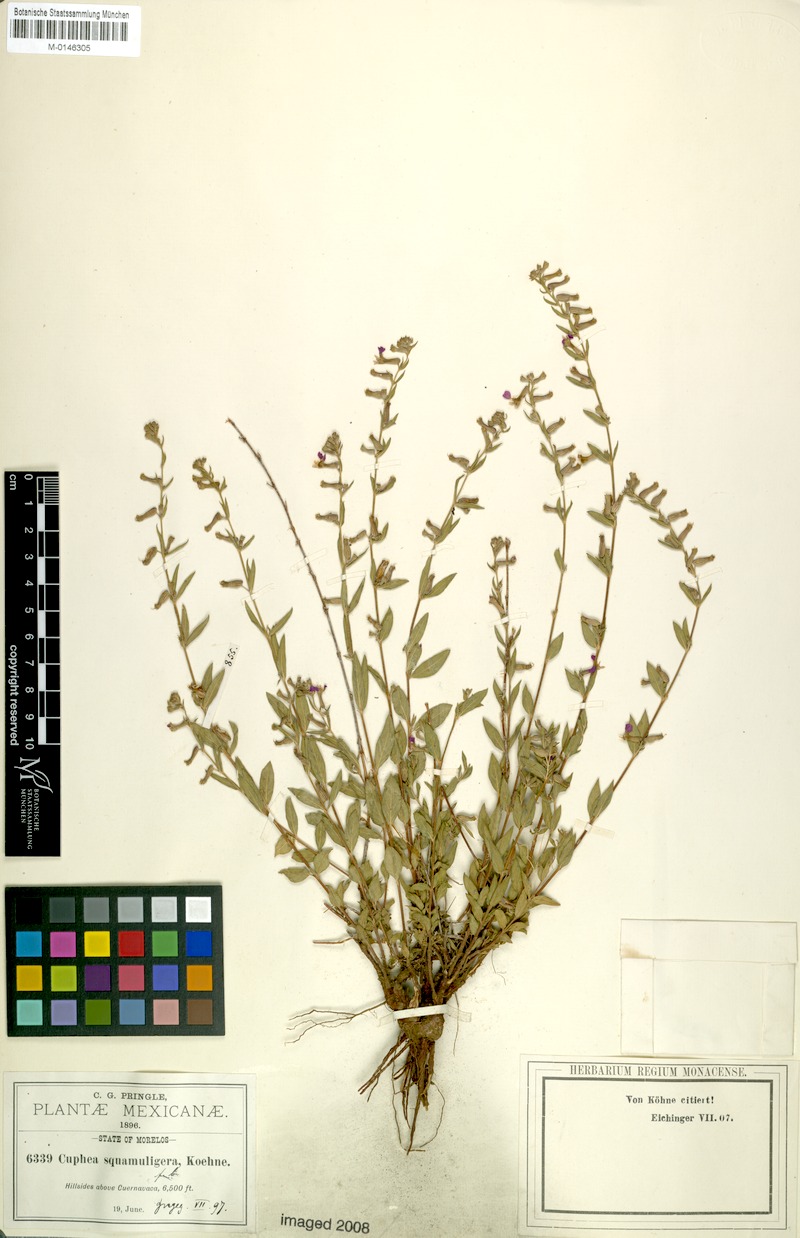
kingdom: Plantae
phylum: Tracheophyta
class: Magnoliopsida
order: Myrtales
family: Lythraceae
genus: Cuphea
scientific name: Cuphea lobophora
